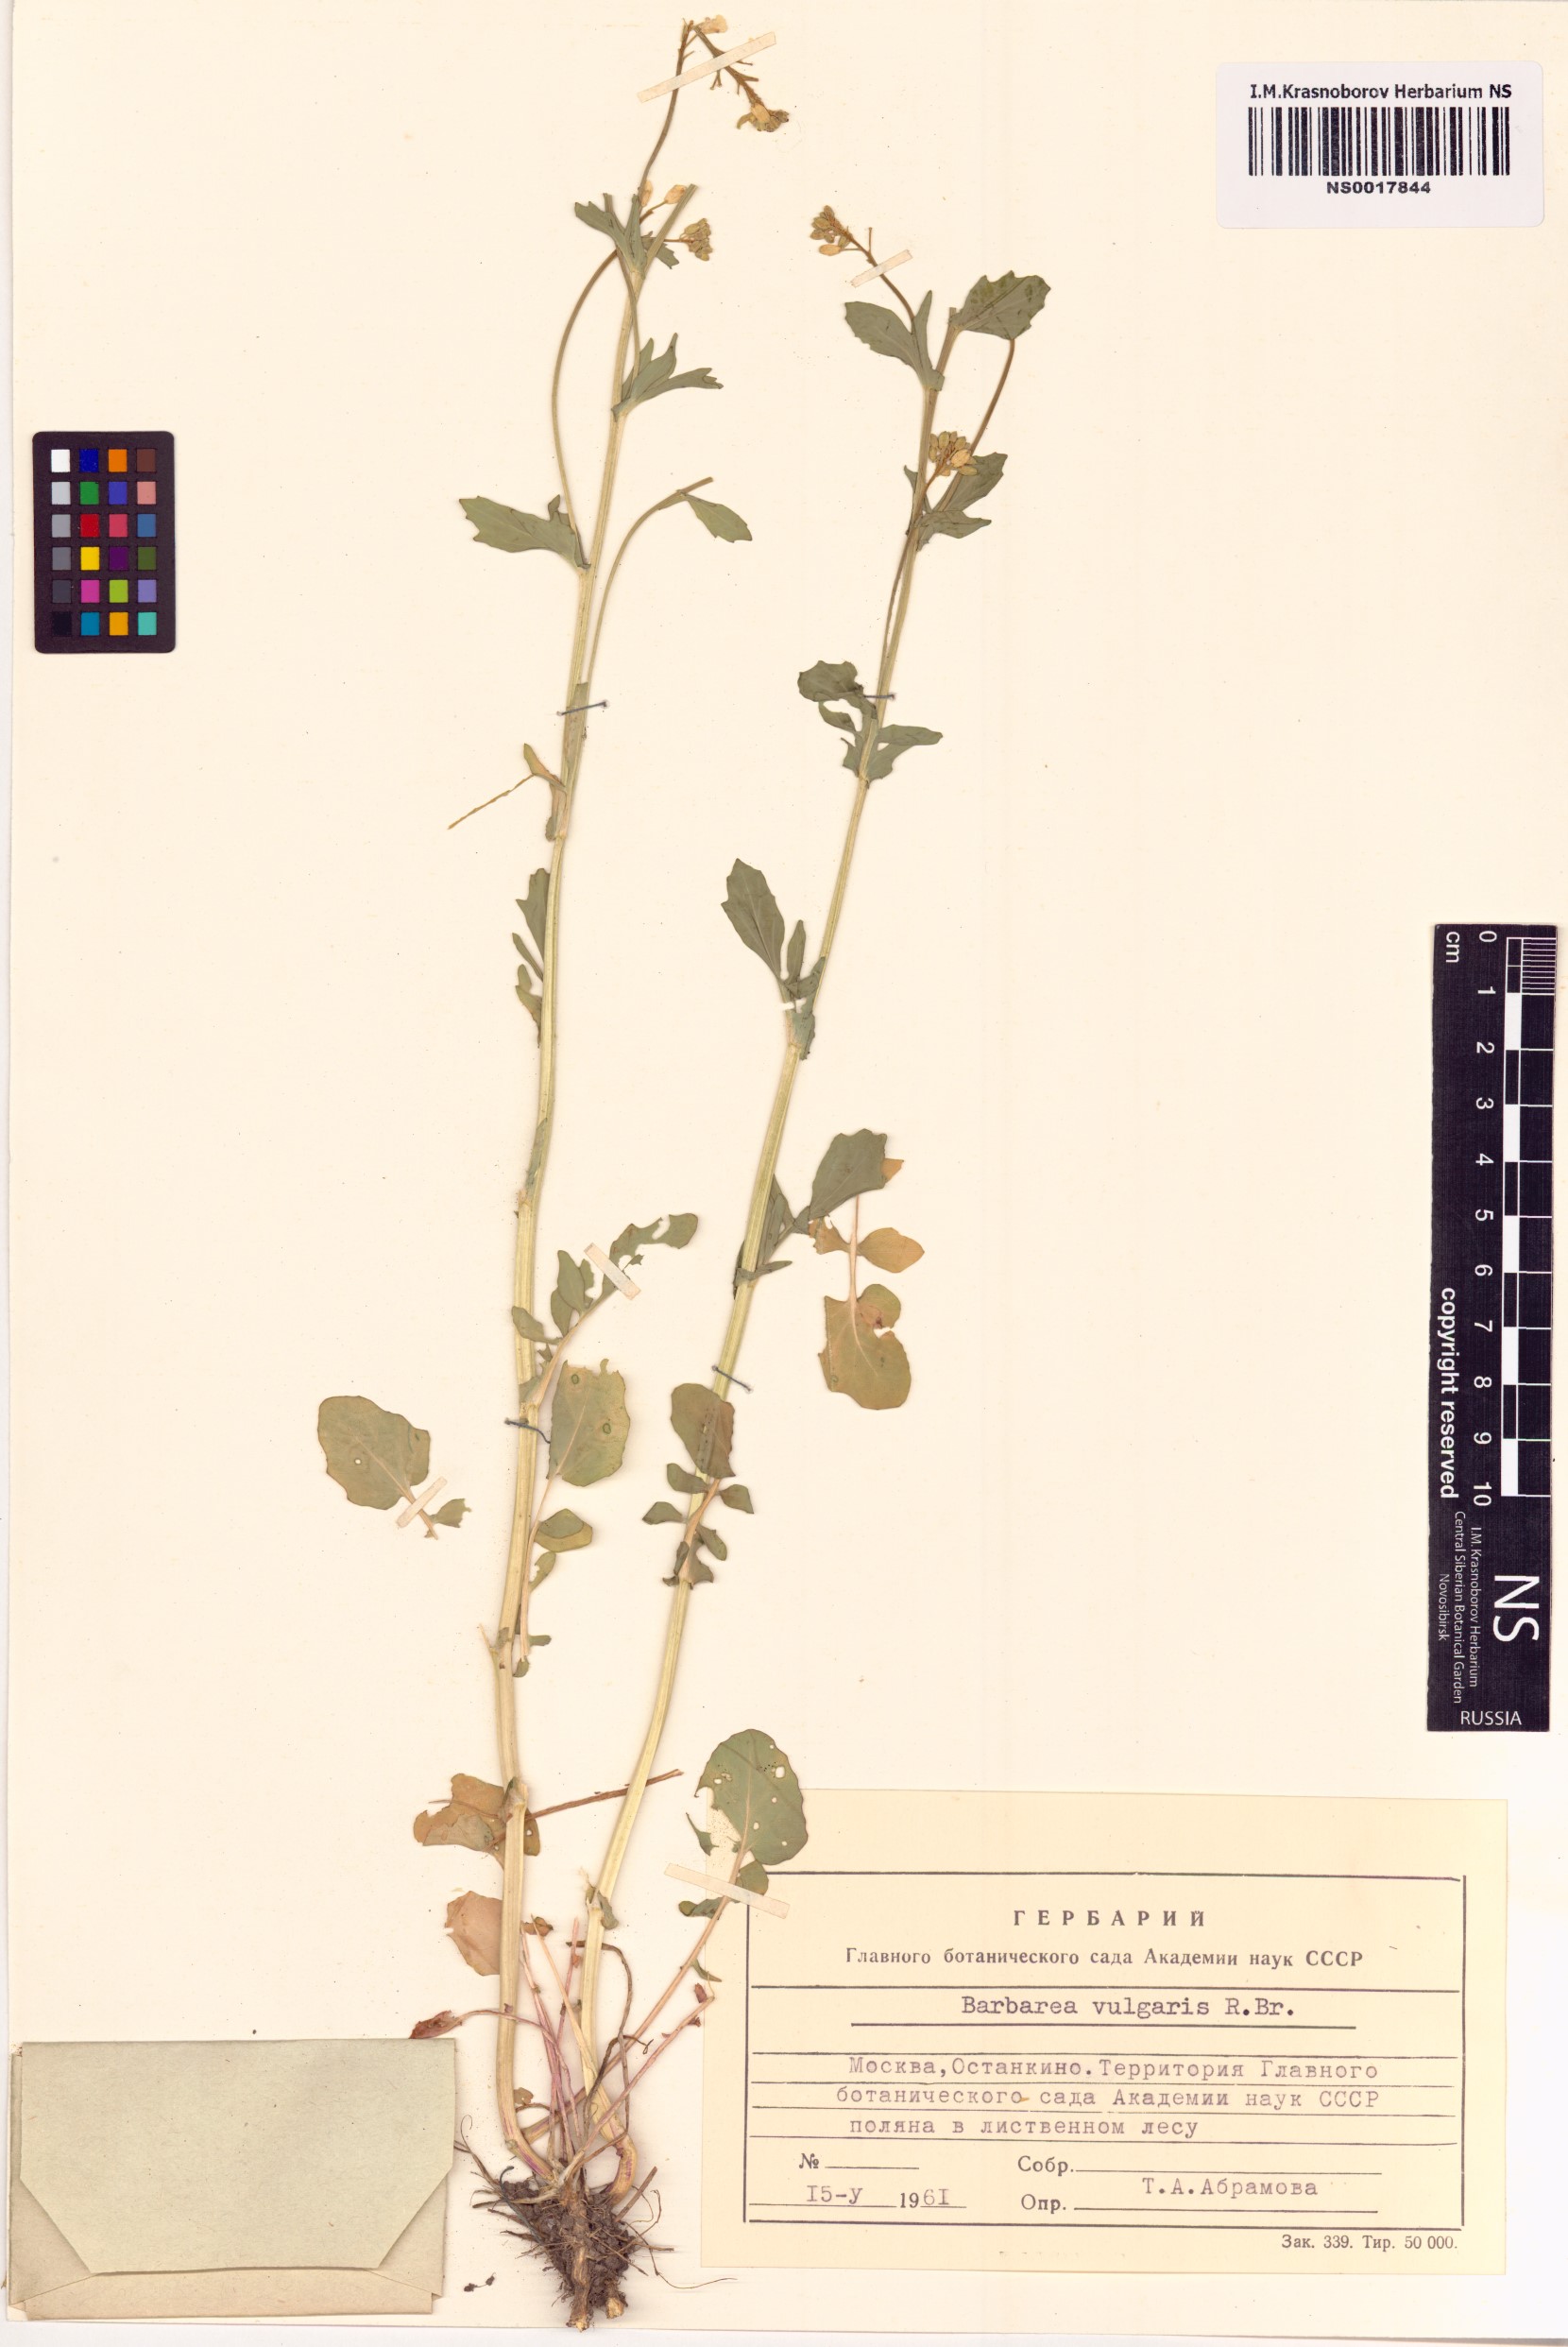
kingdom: Plantae
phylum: Tracheophyta
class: Magnoliopsida
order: Brassicales
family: Brassicaceae
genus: Barbarea
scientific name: Barbarea vulgaris
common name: Cressy-greens
